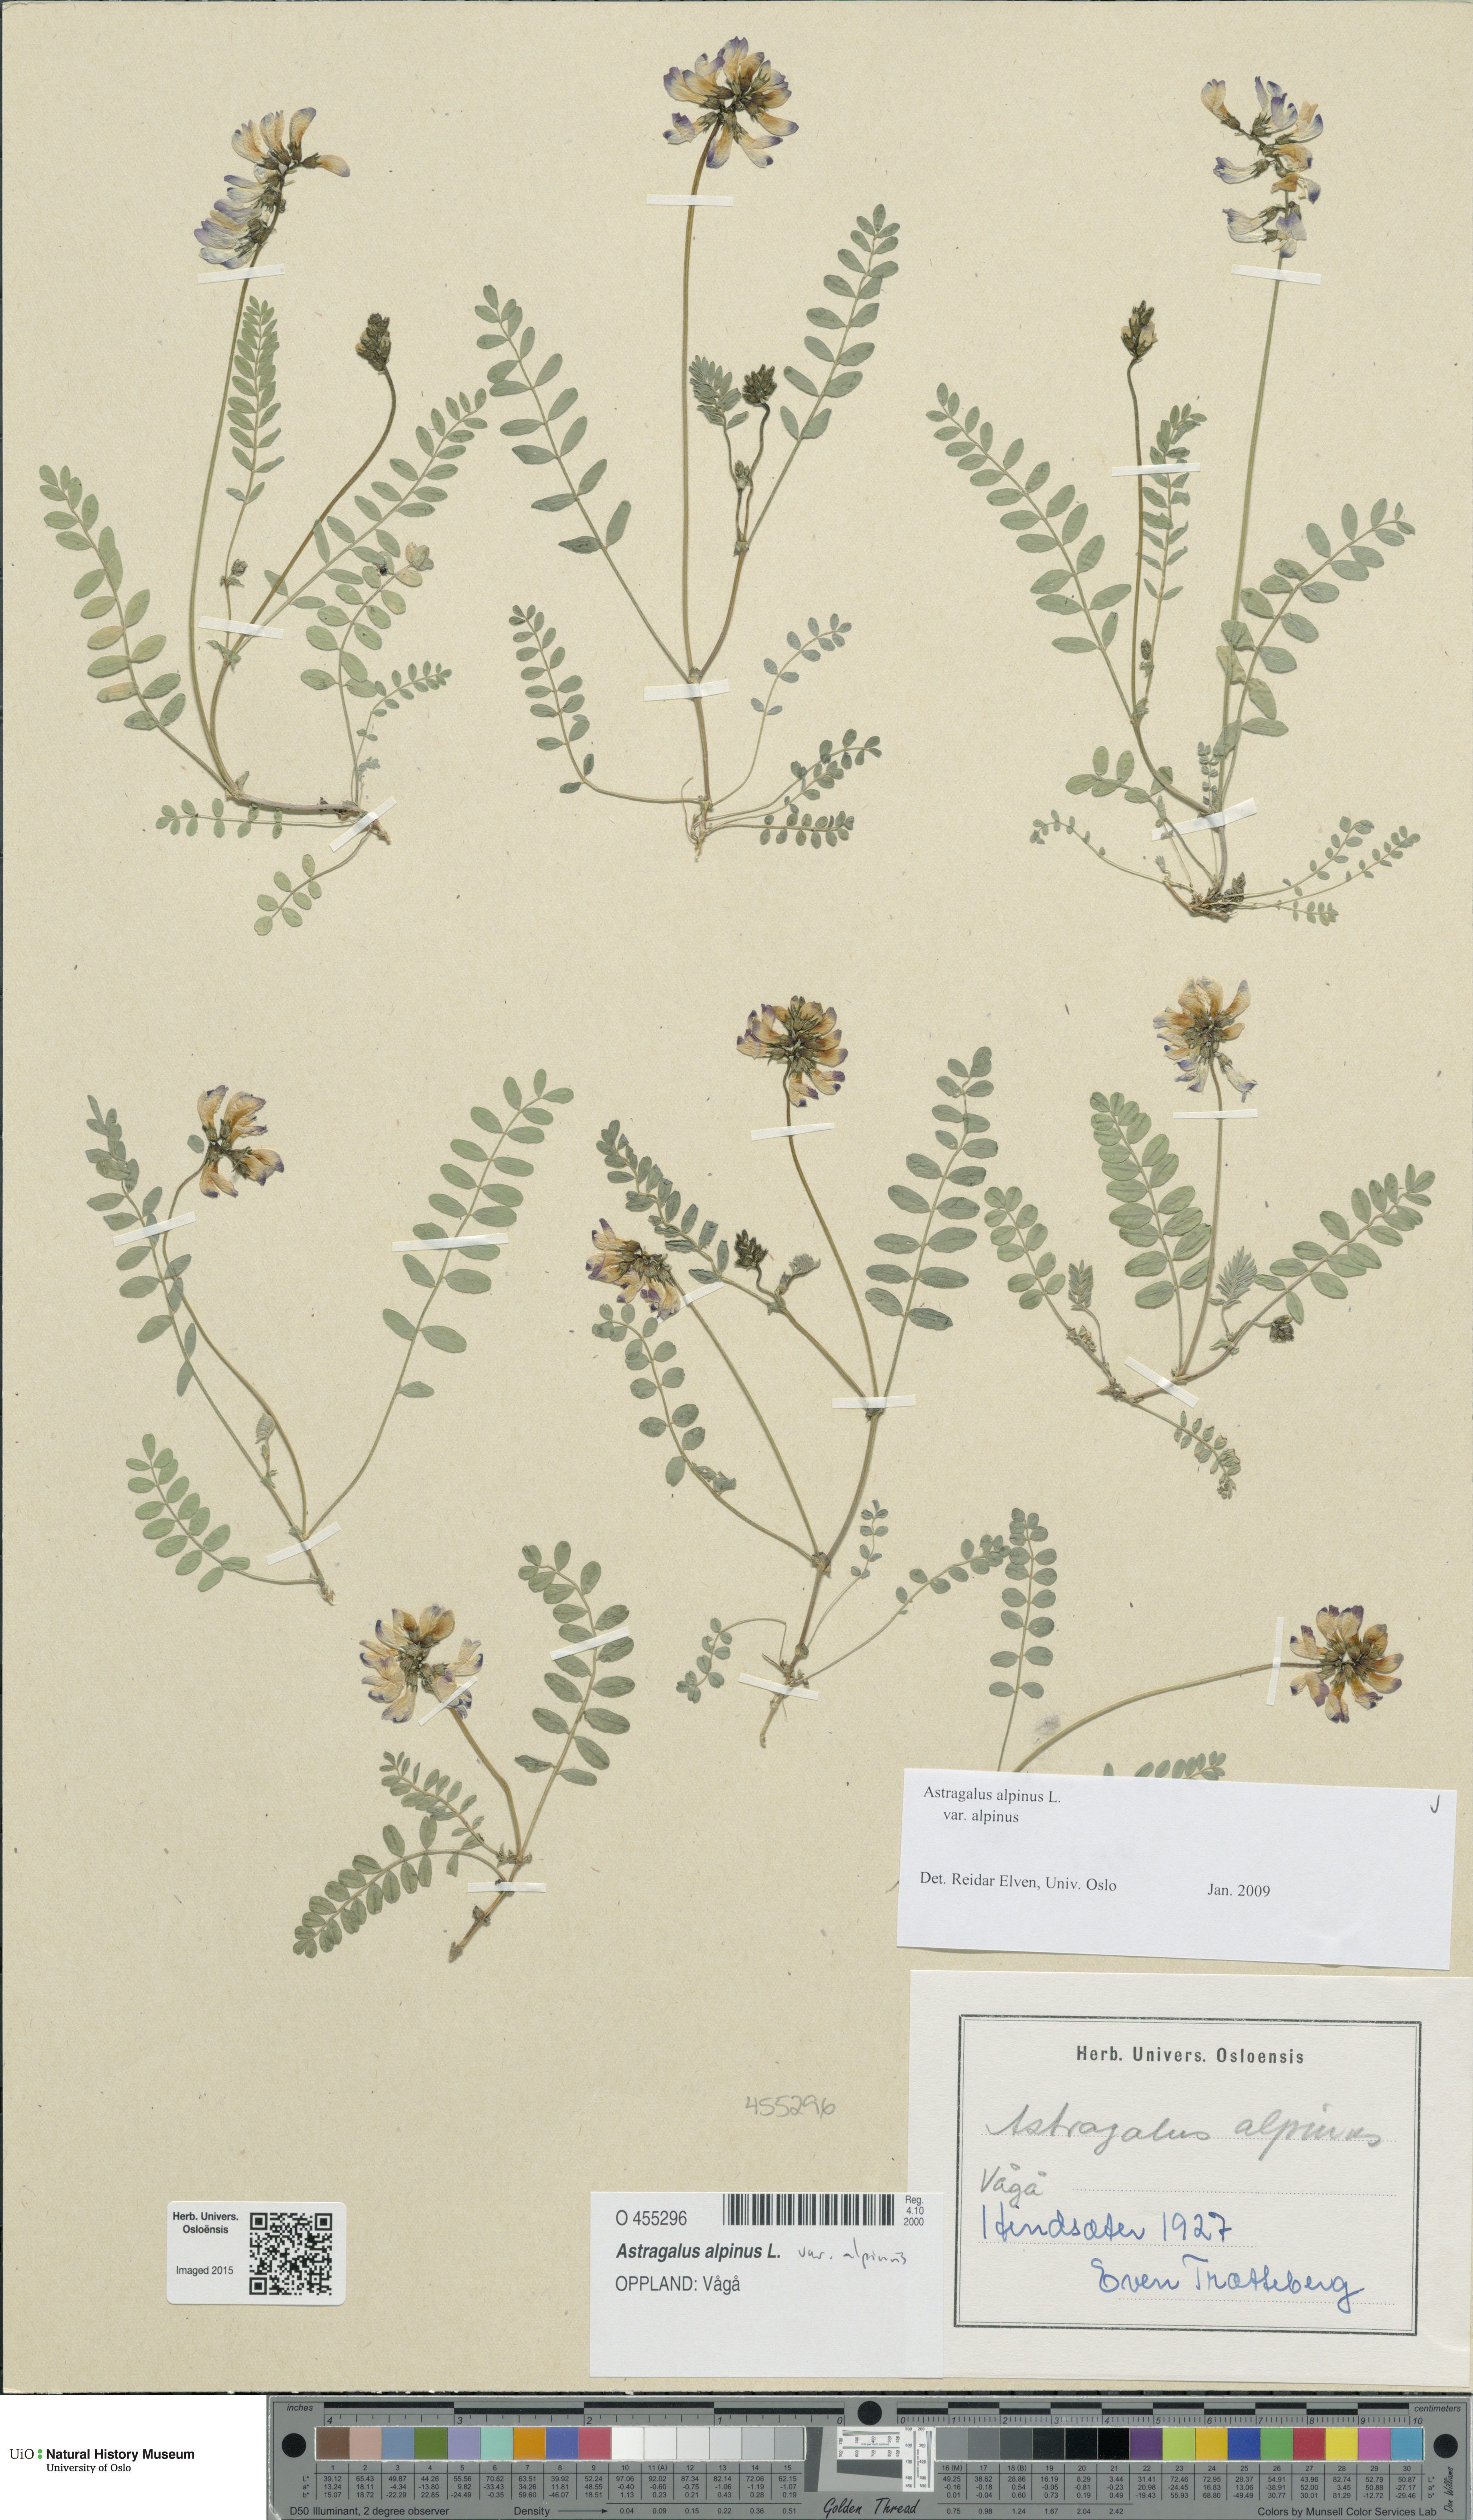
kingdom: Plantae
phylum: Tracheophyta
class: Magnoliopsida
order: Fabales
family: Fabaceae
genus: Astragalus
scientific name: Astragalus alpinus
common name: Alpine milk-vetch
